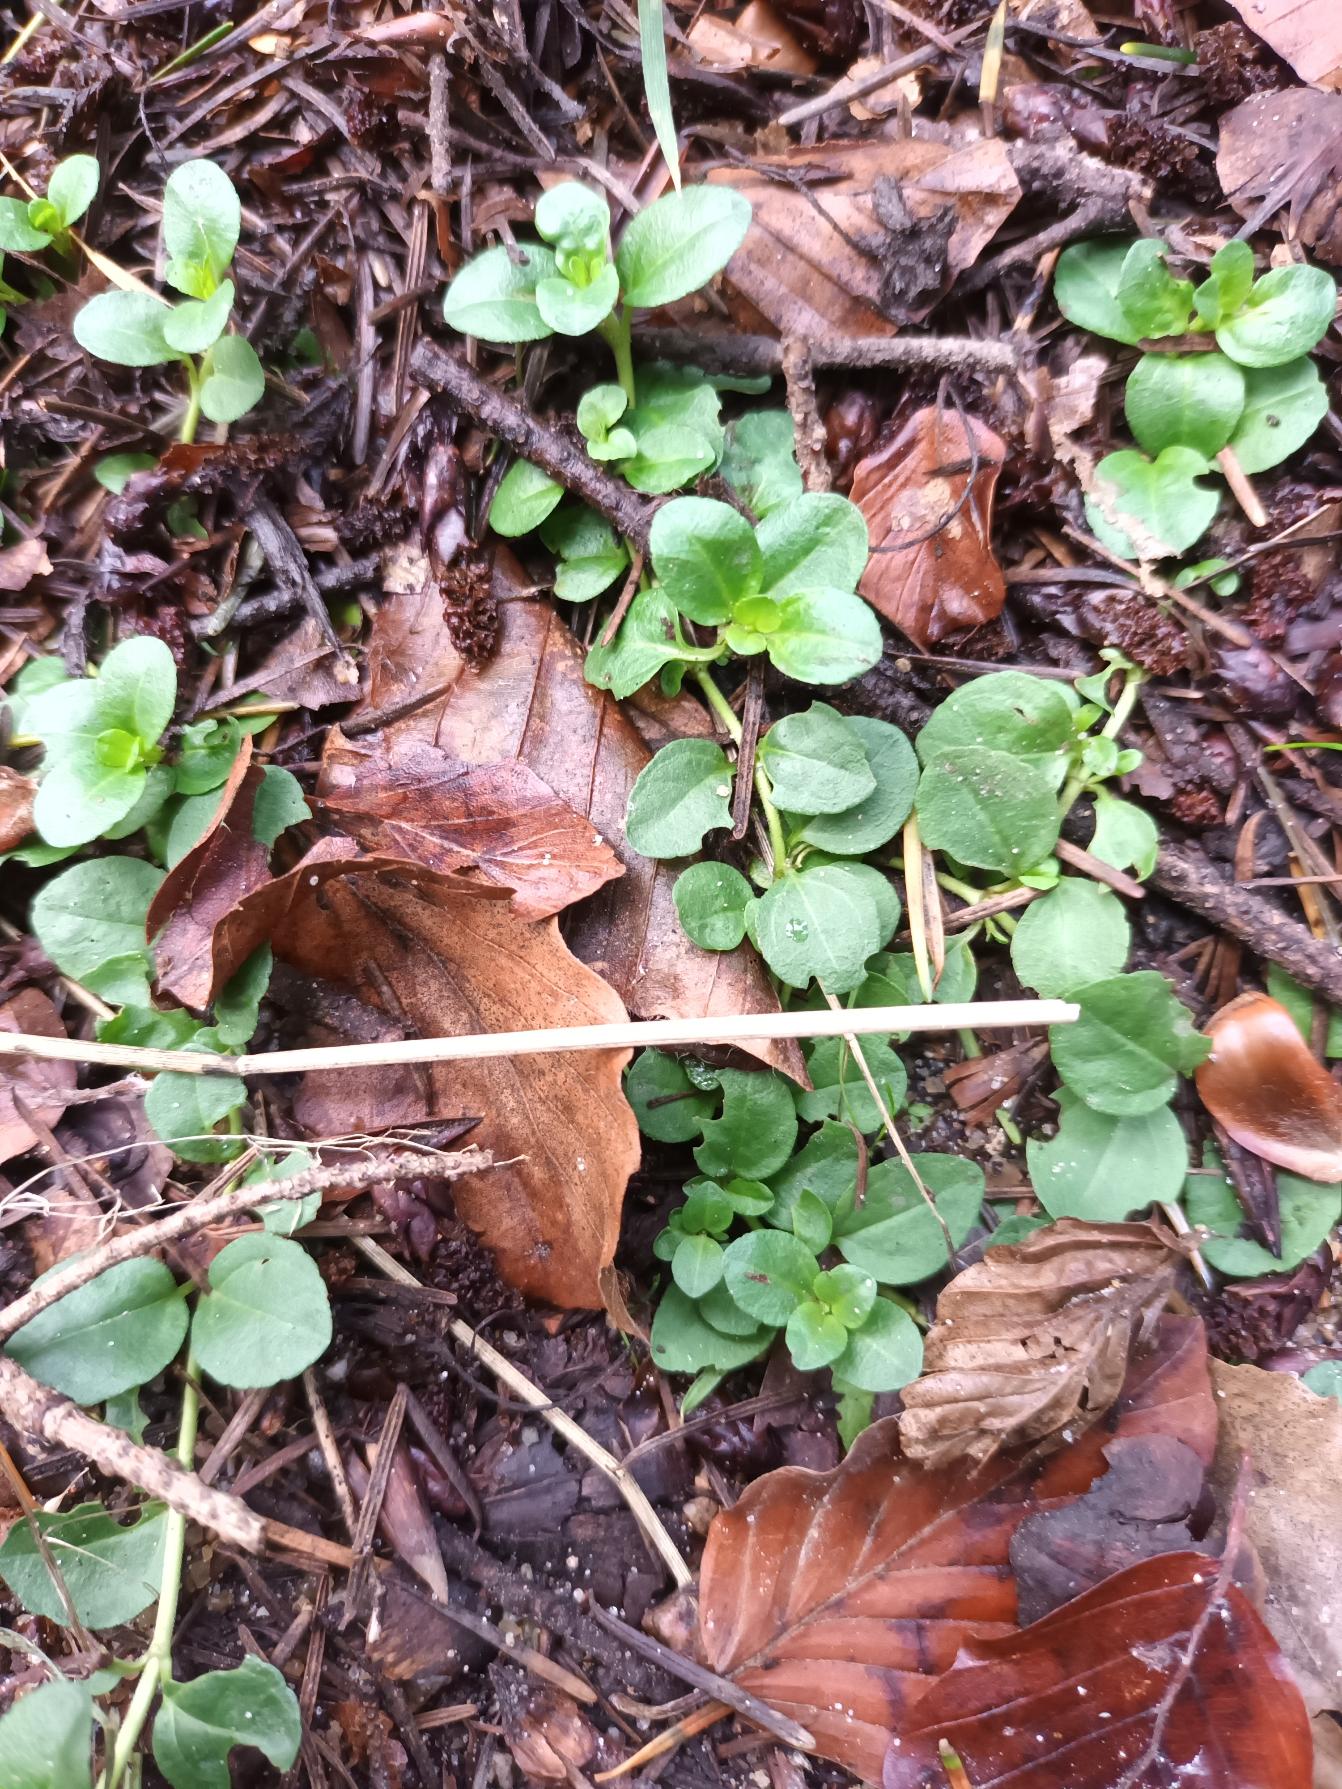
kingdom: Plantae
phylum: Tracheophyta
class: Magnoliopsida
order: Lamiales
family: Plantaginaceae
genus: Veronica
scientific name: Veronica serpyllifolia
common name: Glat ærenpris
